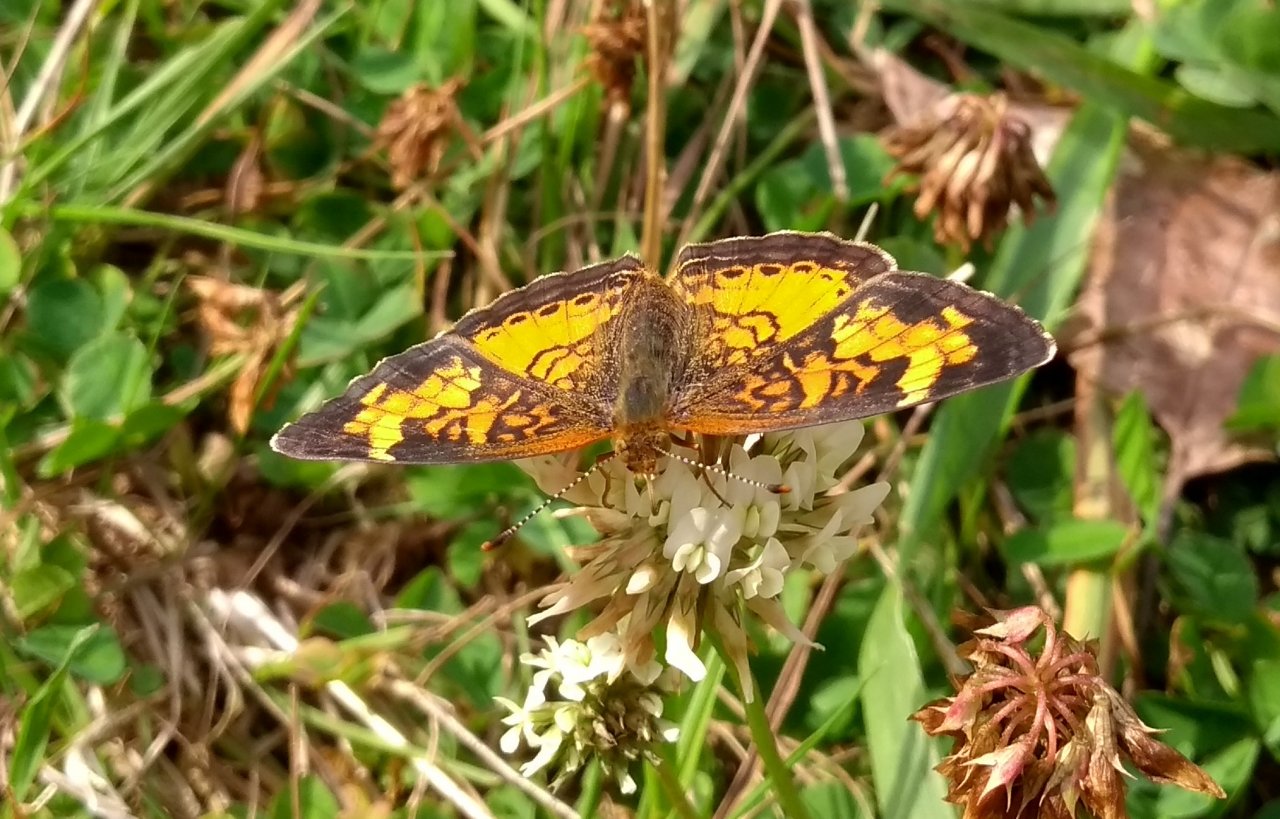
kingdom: Animalia
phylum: Arthropoda
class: Insecta
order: Lepidoptera
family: Nymphalidae
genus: Phyciodes
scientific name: Phyciodes tharos
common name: Northern Crescent
